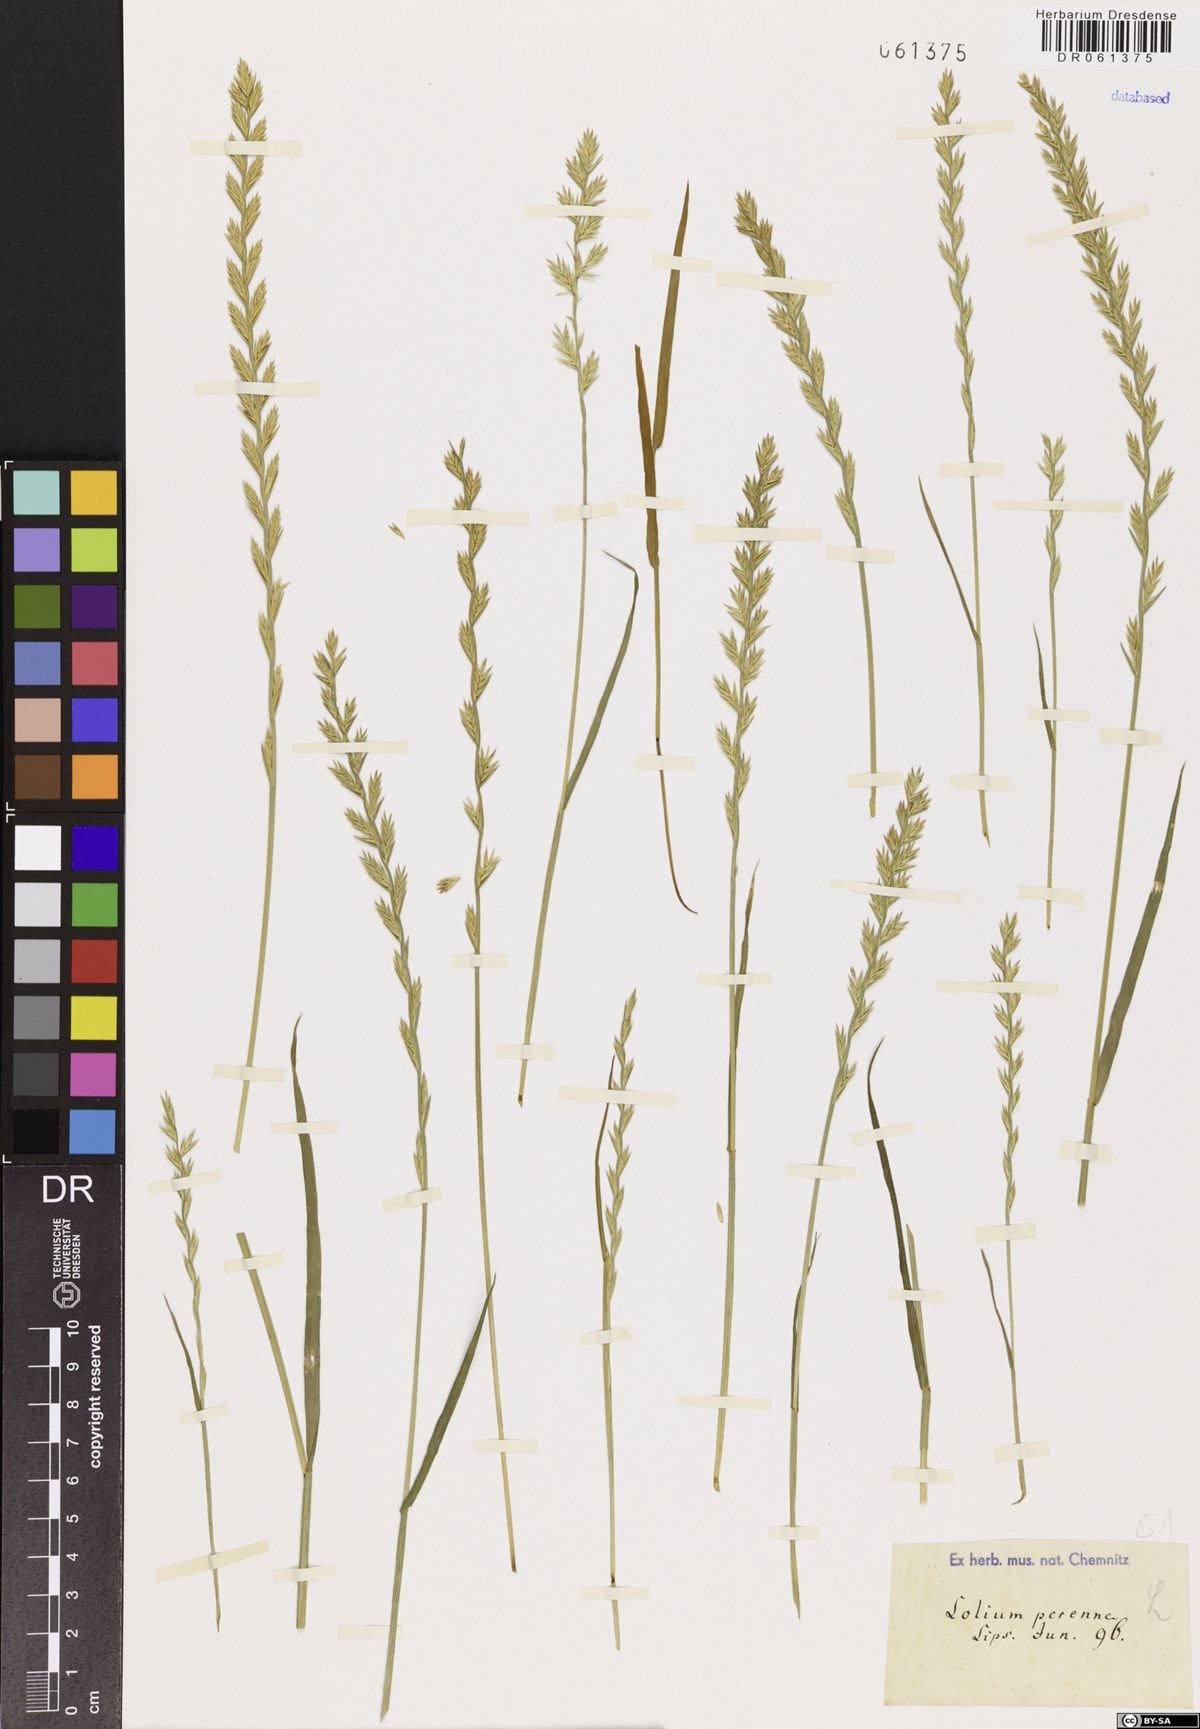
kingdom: Plantae
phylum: Tracheophyta
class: Liliopsida
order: Poales
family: Poaceae
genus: Lolium
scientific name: Lolium perenne
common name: Perennial ryegrass
